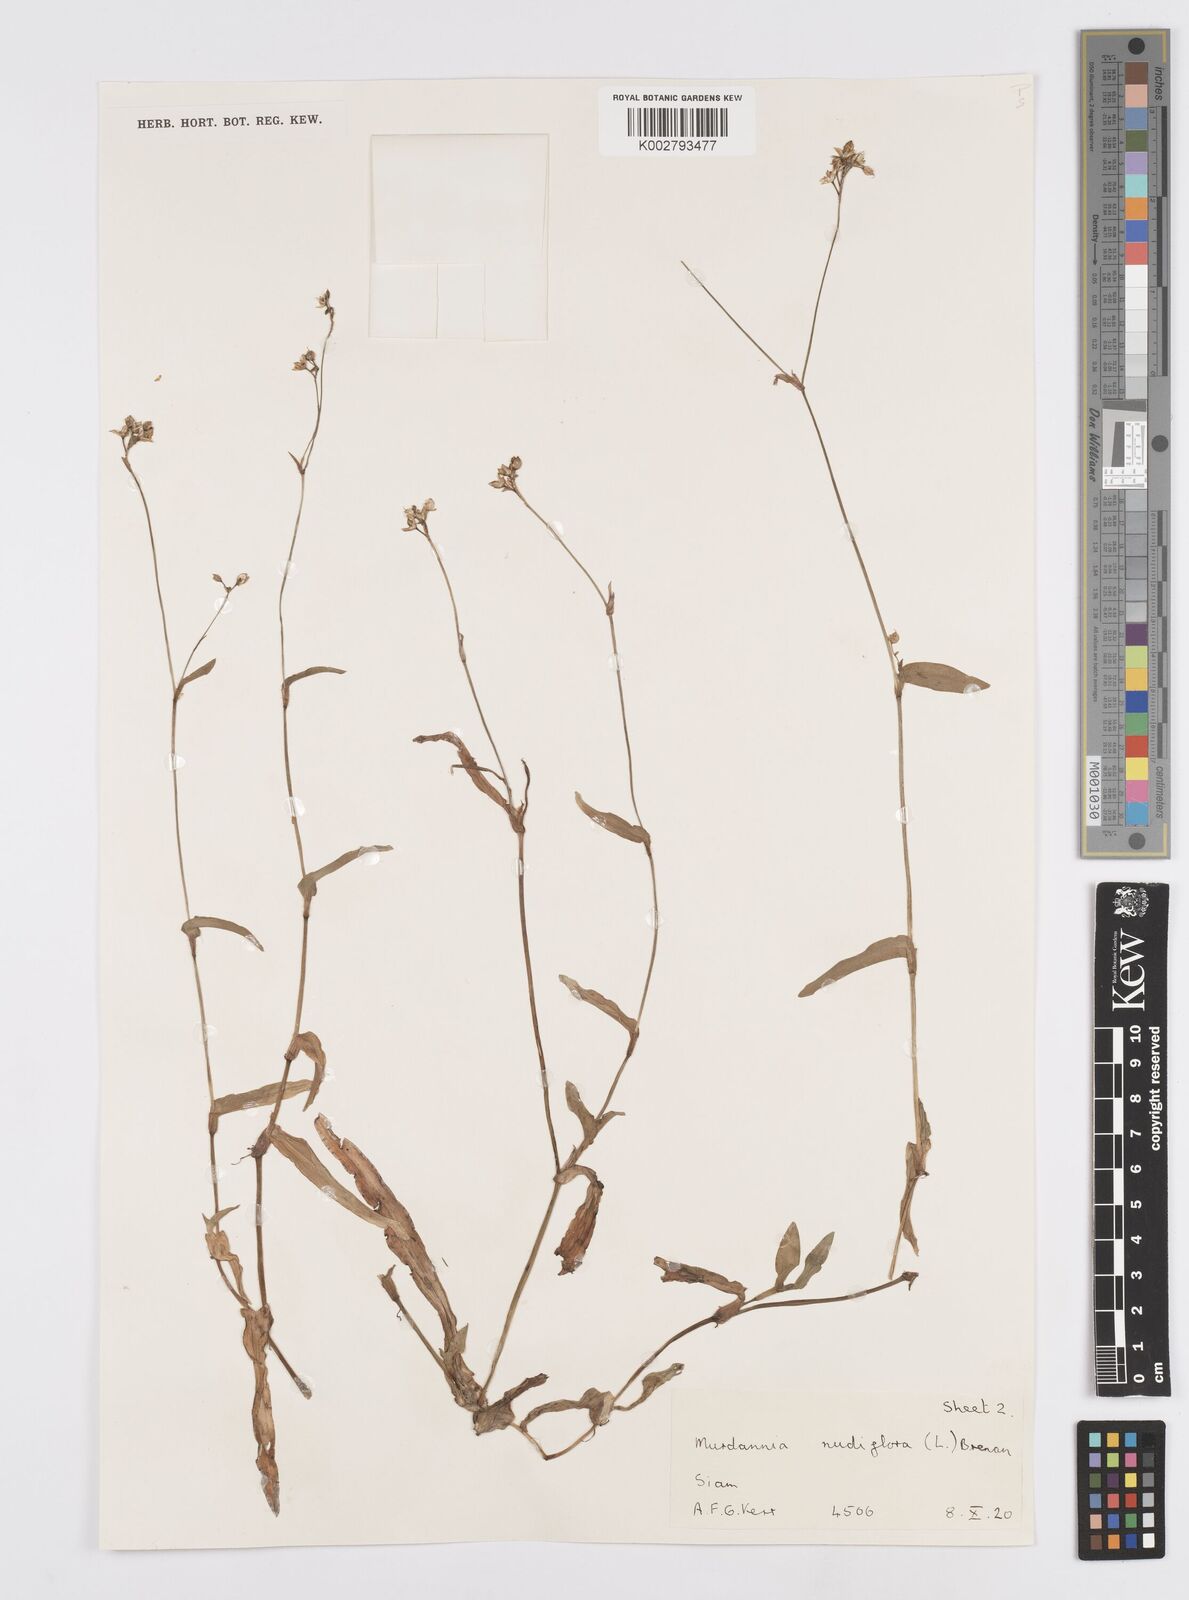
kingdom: Plantae
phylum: Tracheophyta
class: Liliopsida
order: Commelinales
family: Commelinaceae
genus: Murdannia
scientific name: Murdannia nudiflora
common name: Nakedstem dewflower
